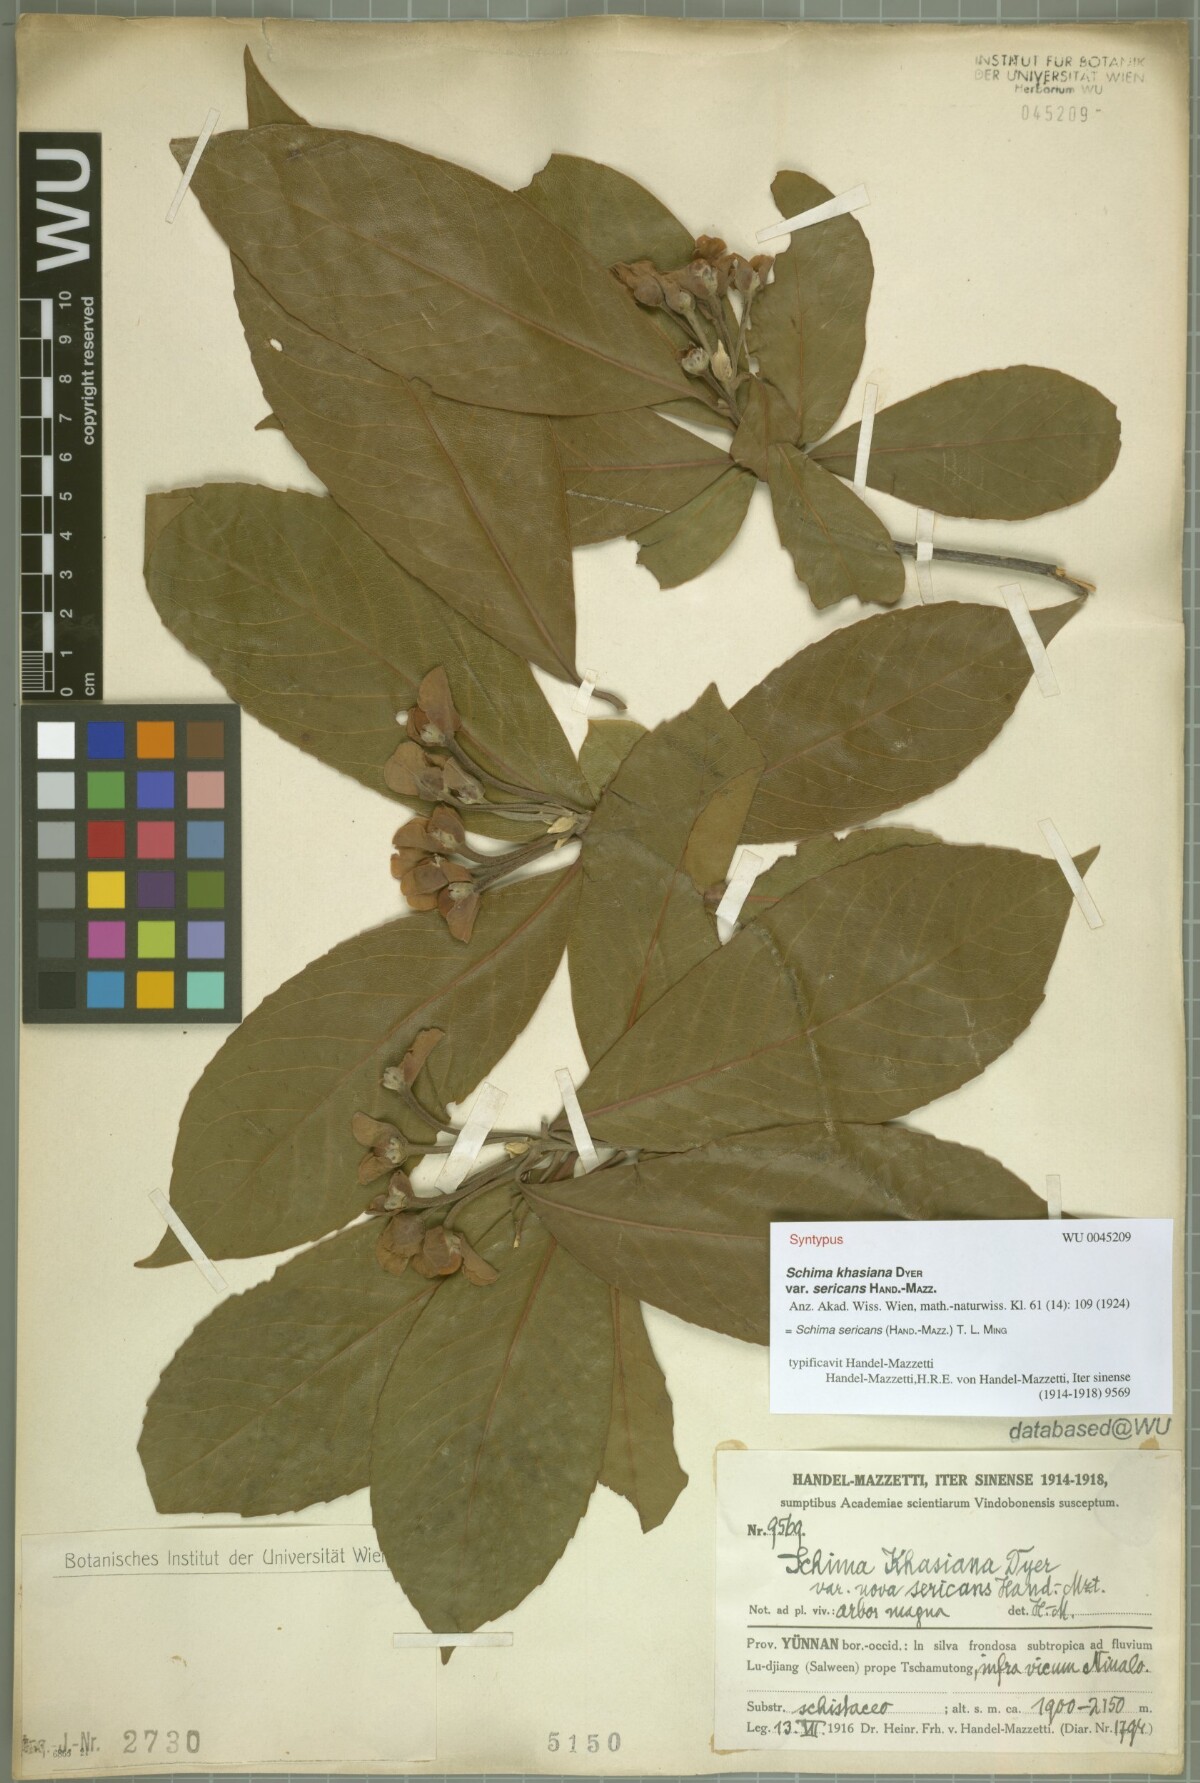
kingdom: Plantae
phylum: Tracheophyta
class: Magnoliopsida
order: Ericales
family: Theaceae
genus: Schima
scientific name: Schima sericans
